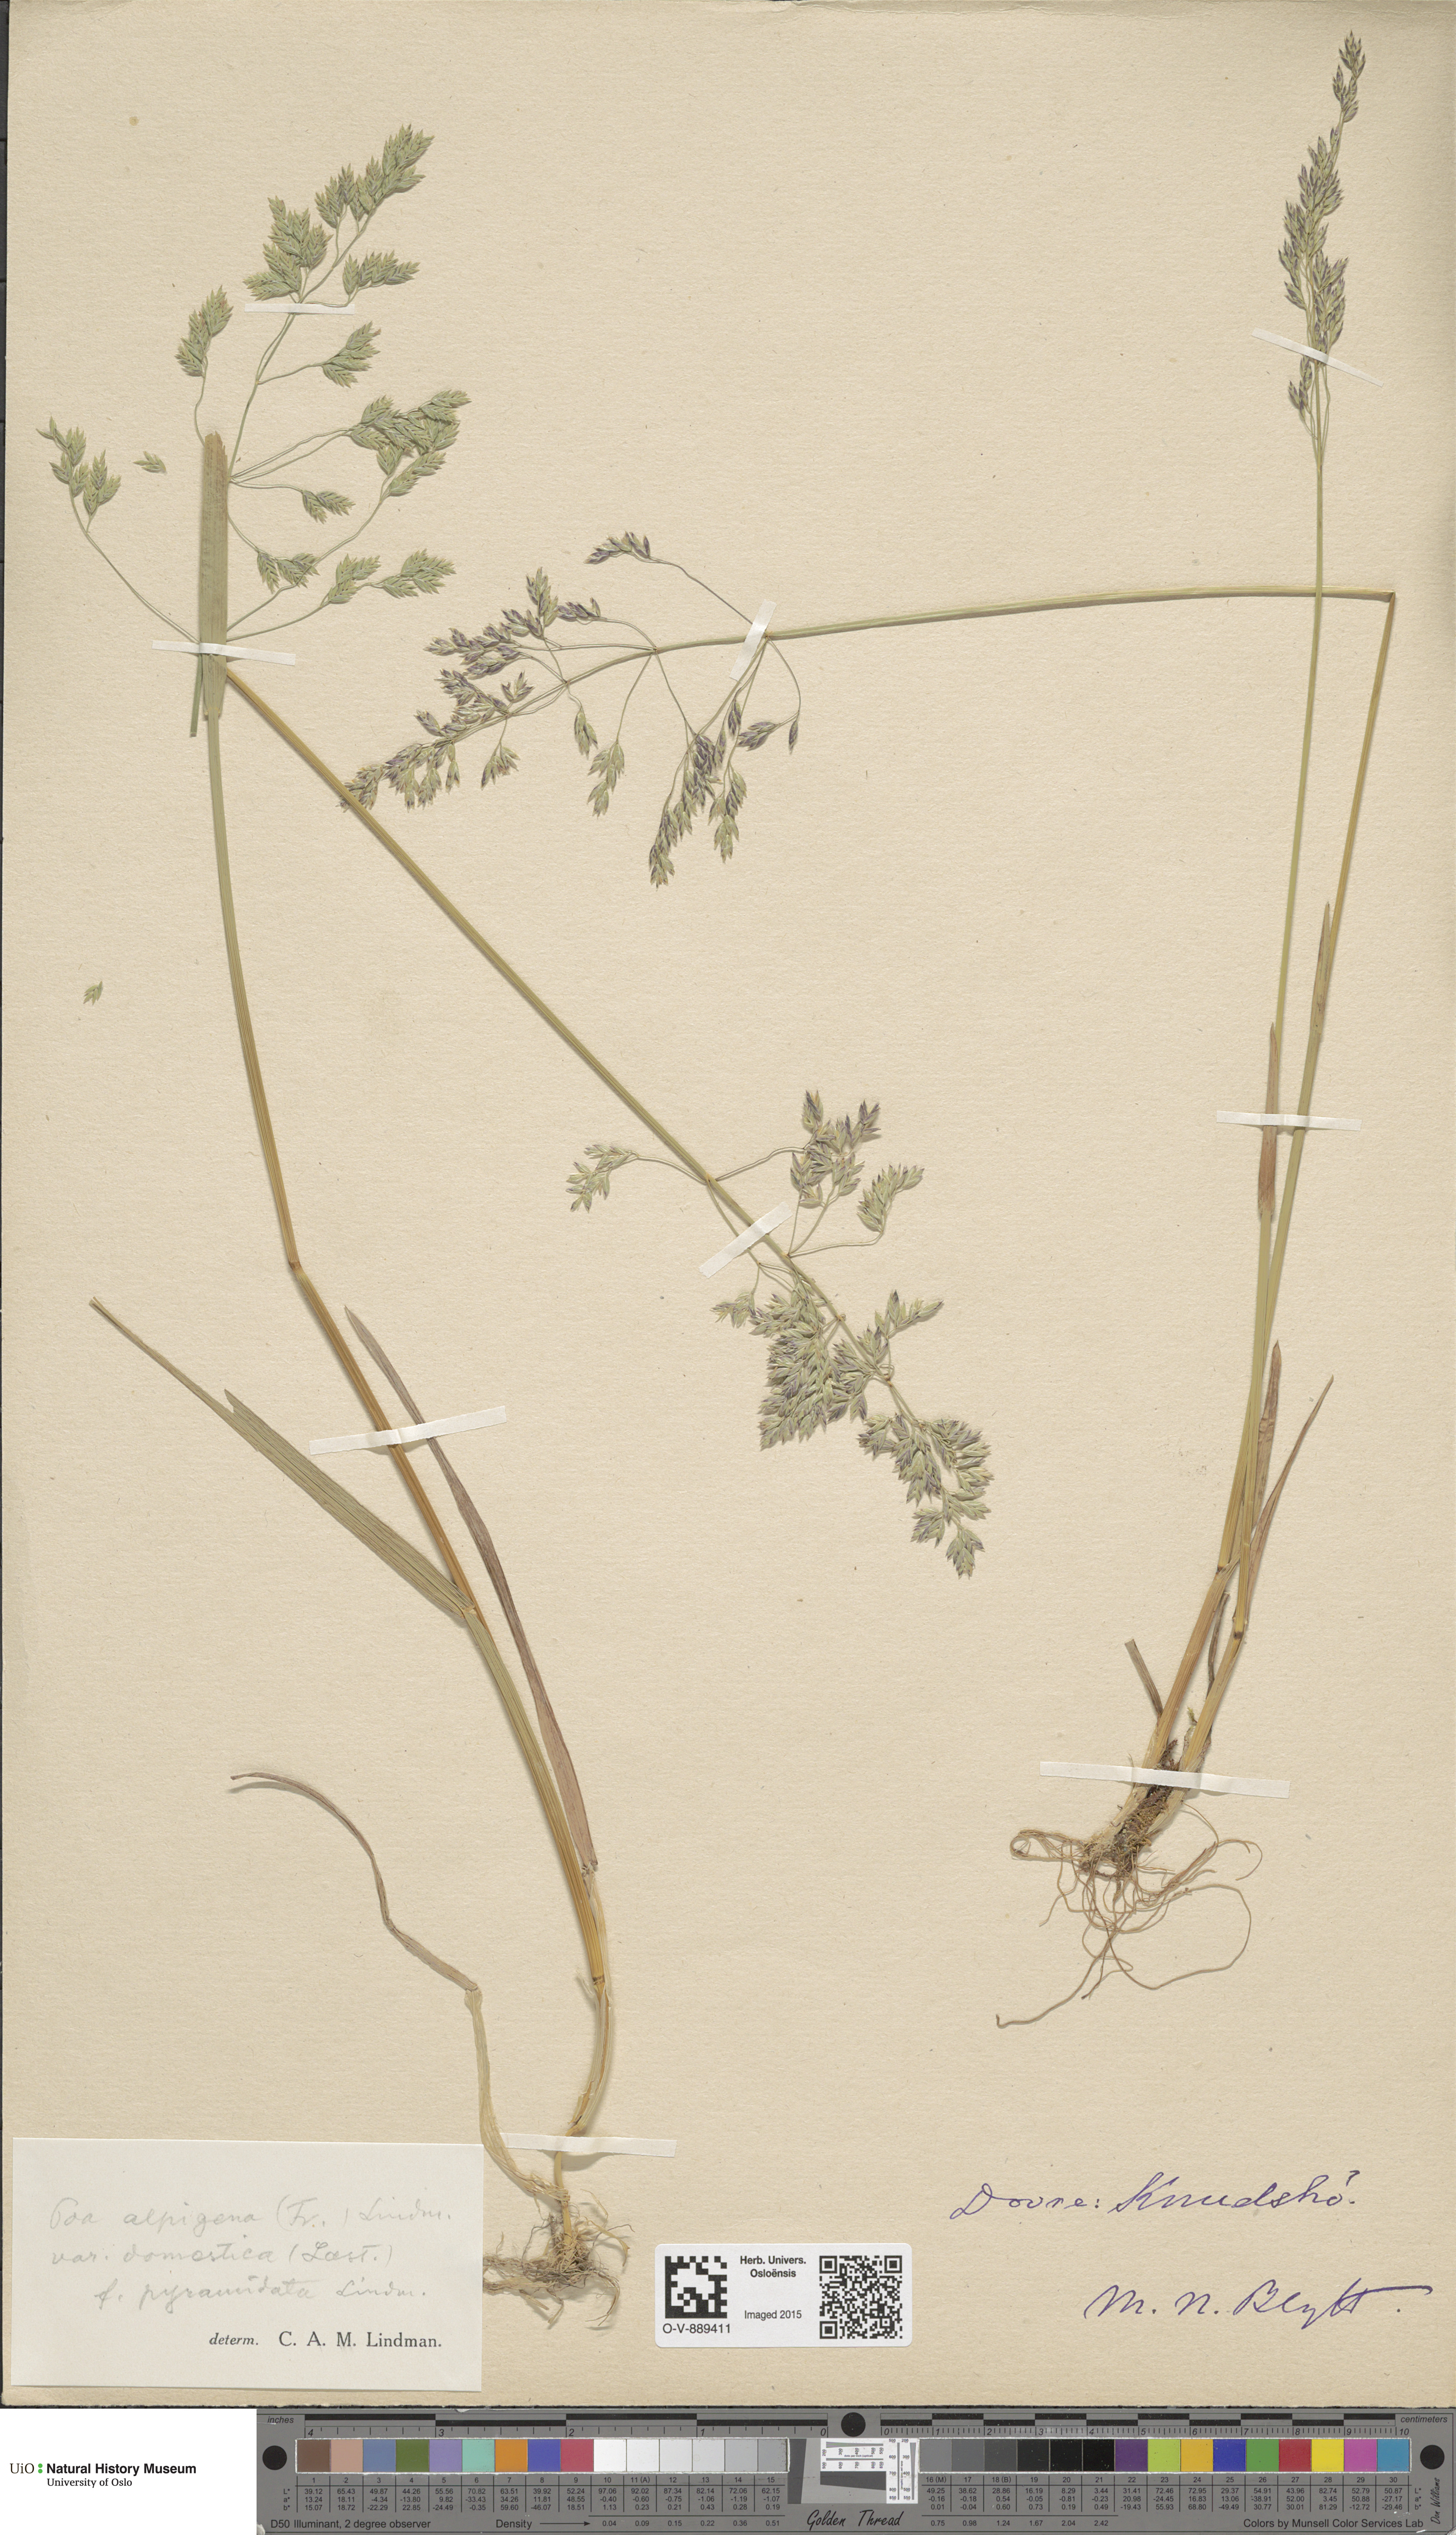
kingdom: Plantae
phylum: Tracheophyta
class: Liliopsida
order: Poales
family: Poaceae
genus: Poa
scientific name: Poa pratensis
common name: Kentucky bluegrass
